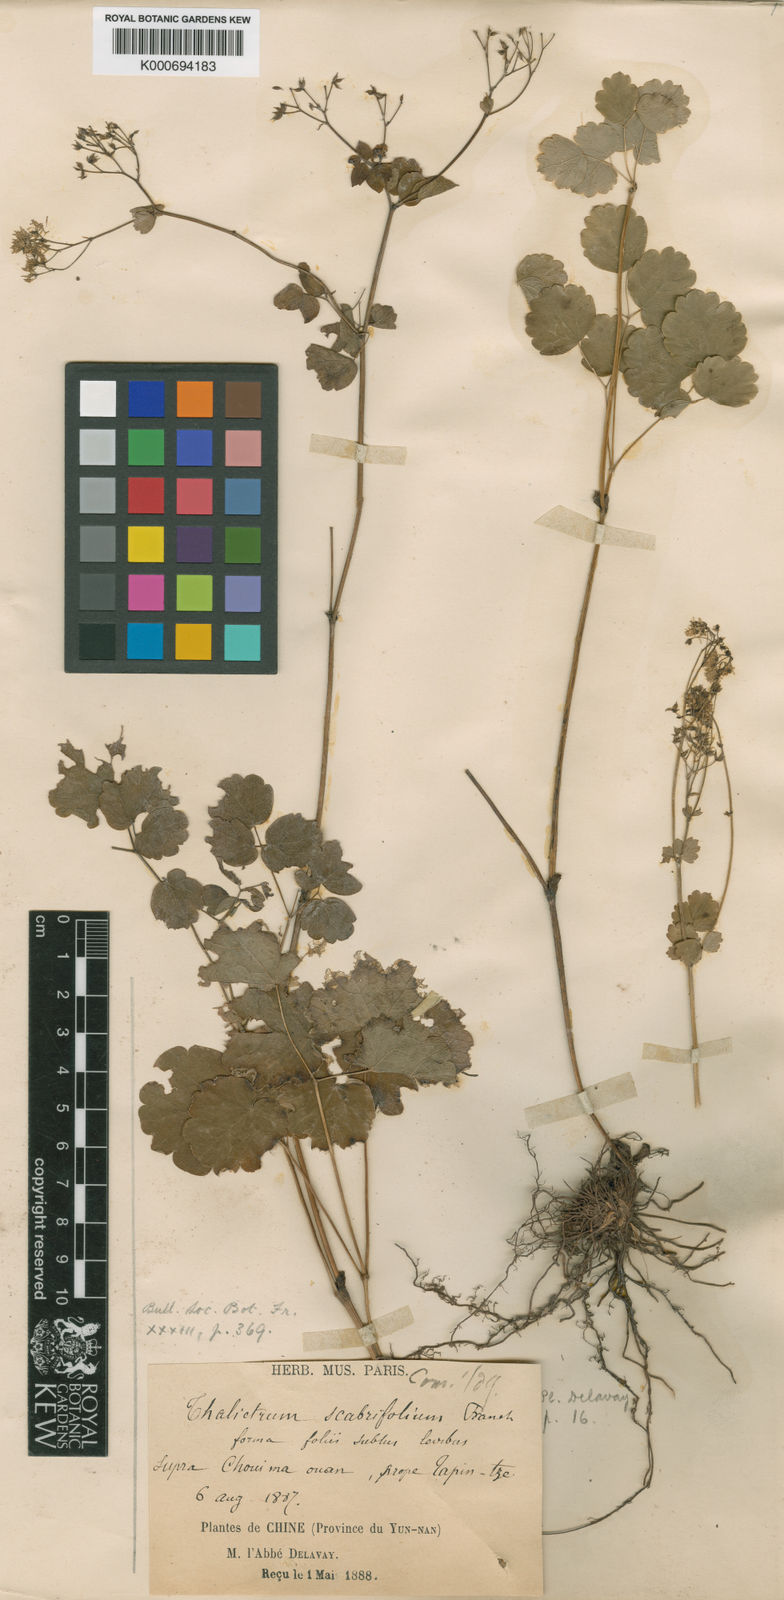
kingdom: Plantae
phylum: Tracheophyta
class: Magnoliopsida
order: Ranunculales
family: Ranunculaceae
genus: Thalictrum
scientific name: Thalictrum calcicolum
